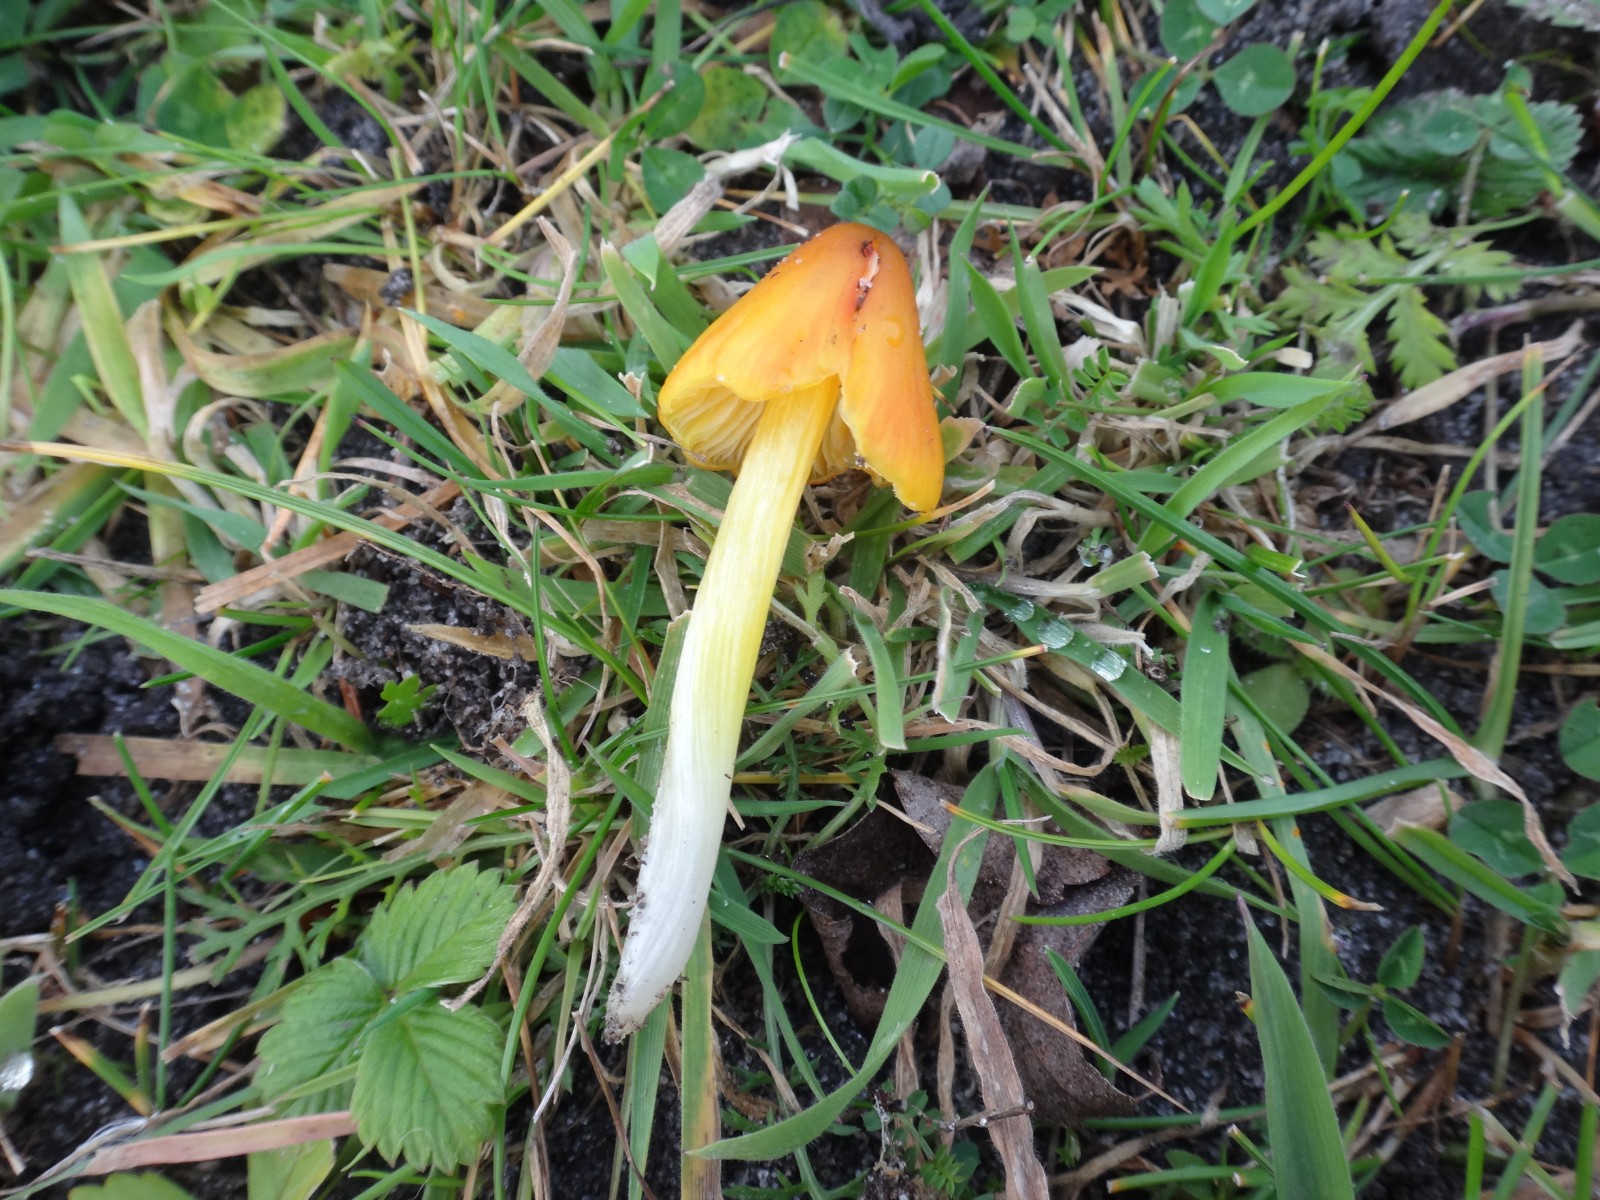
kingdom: Fungi
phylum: Basidiomycota
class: Agaricomycetes
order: Agaricales
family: Hygrophoraceae
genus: Hygrocybe
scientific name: Hygrocybe conica
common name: kegle-vokshat
